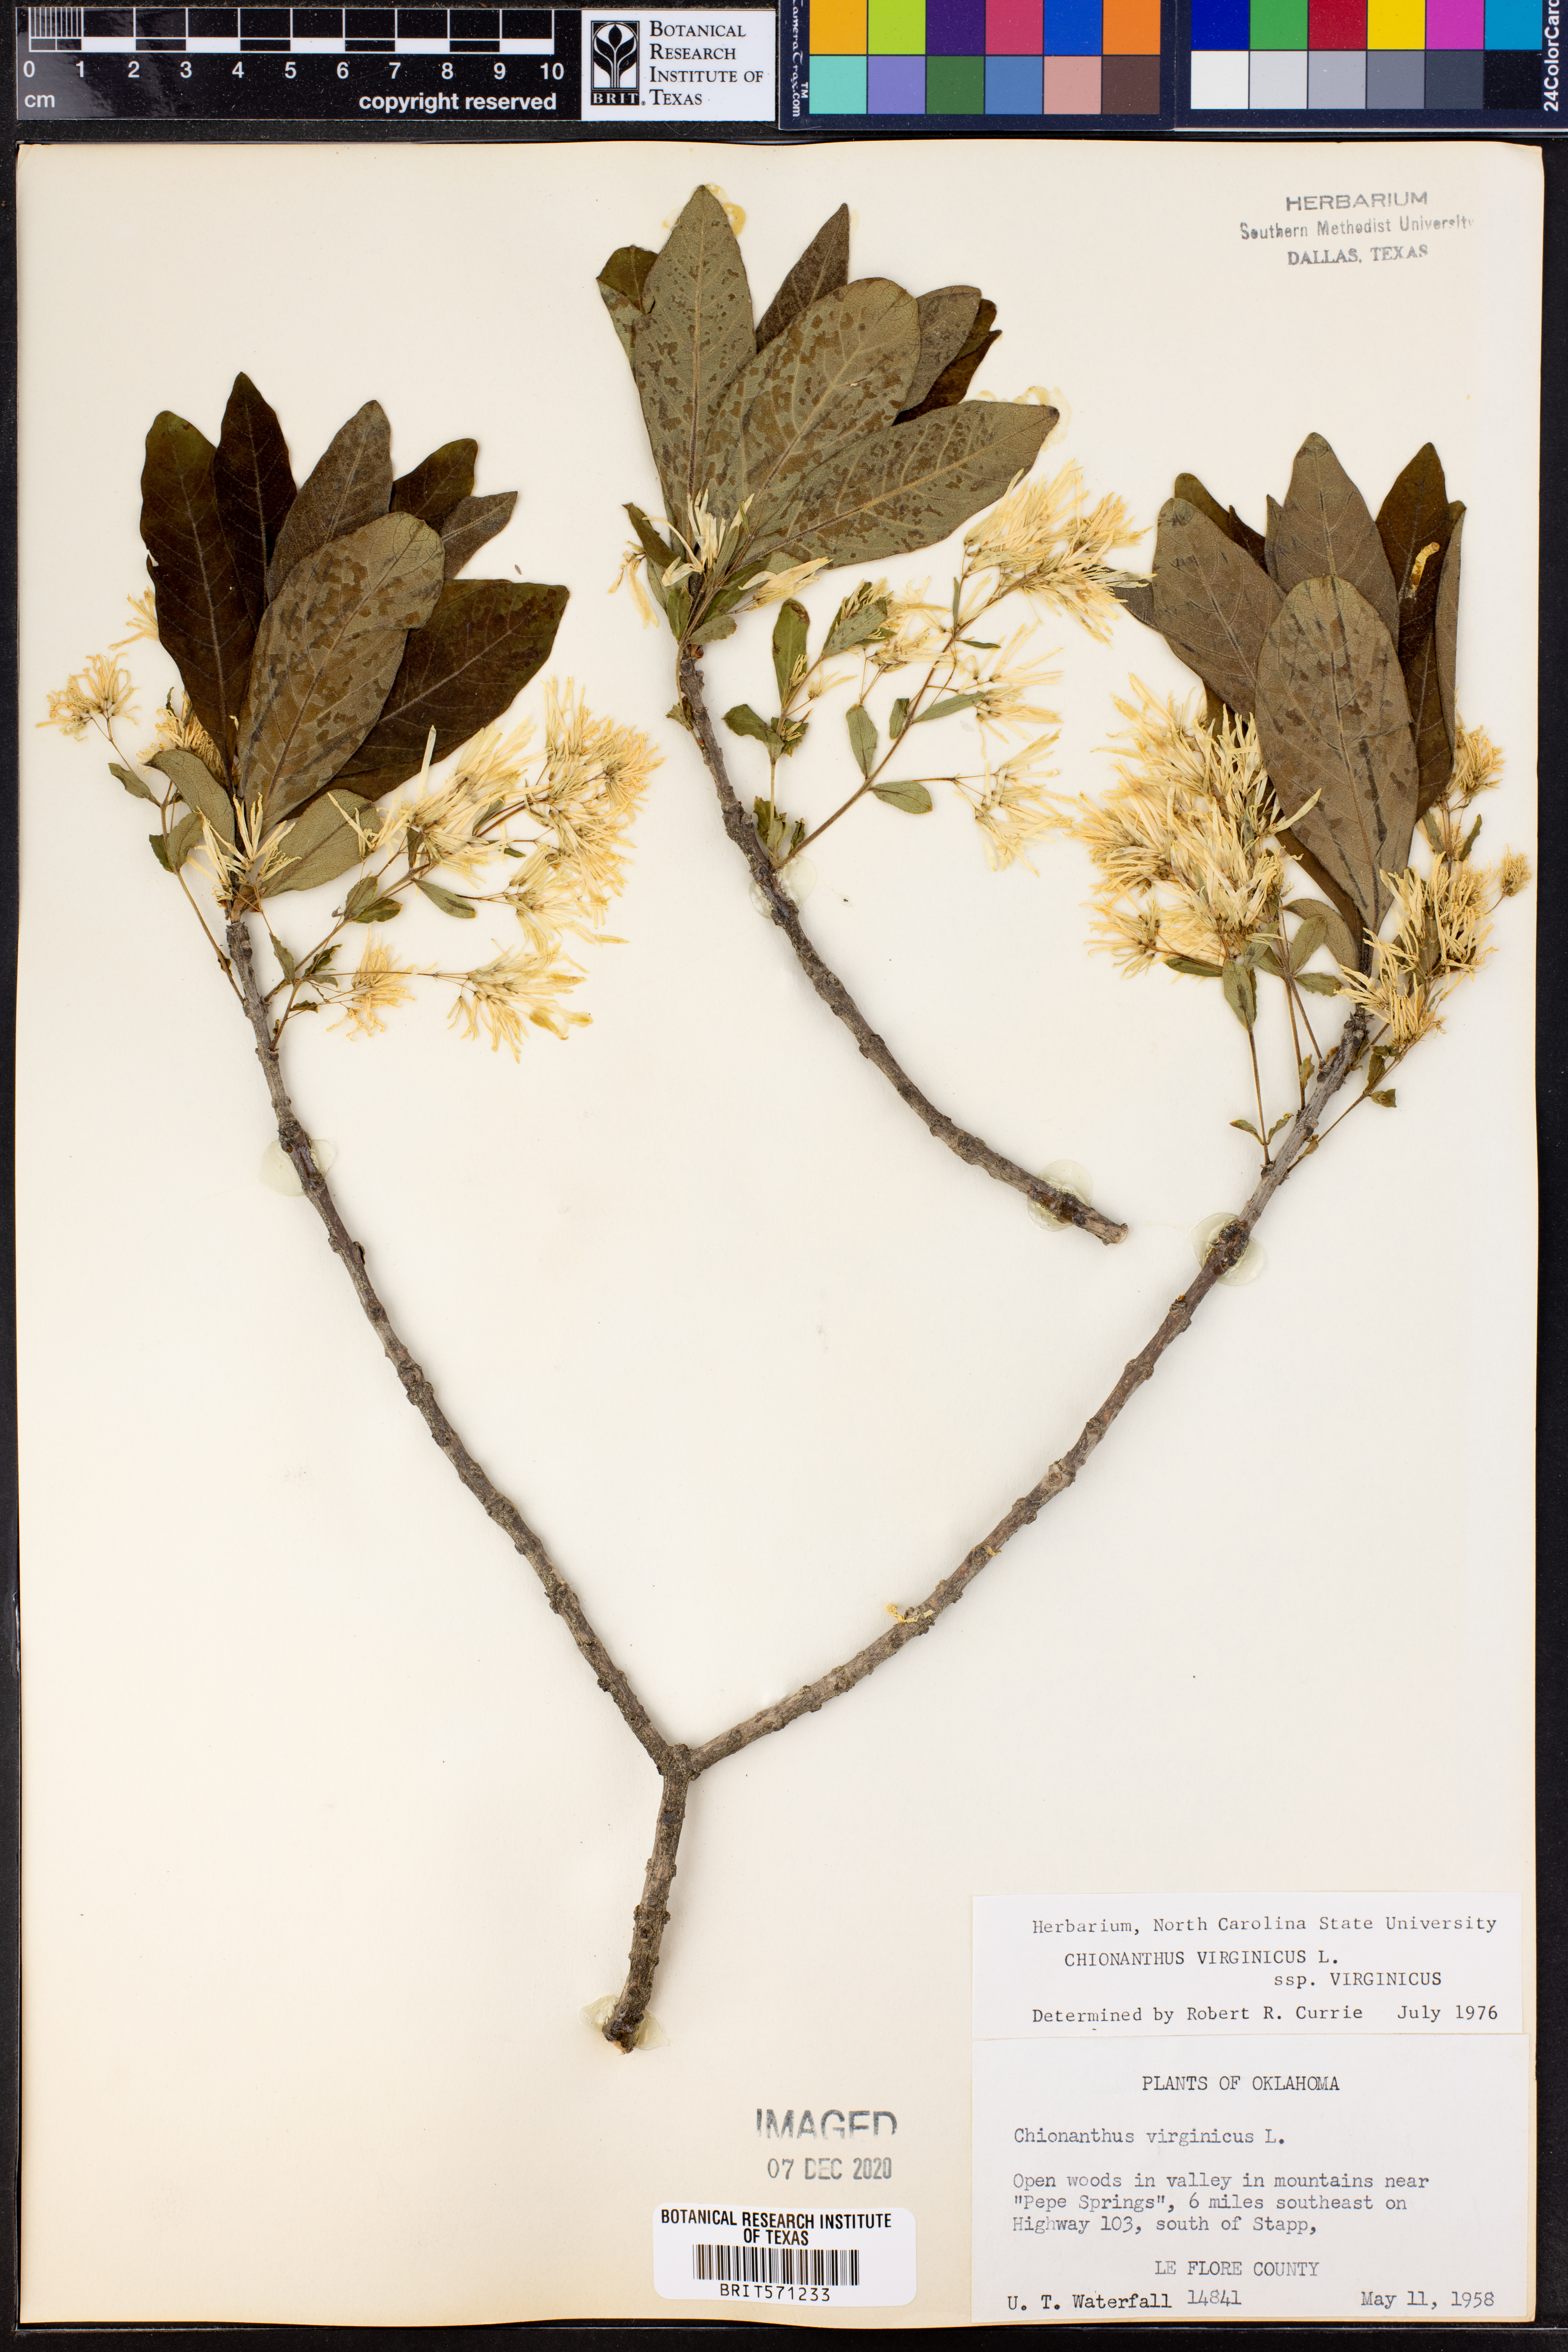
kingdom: Plantae
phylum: Tracheophyta
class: Magnoliopsida
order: Lamiales
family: Oleaceae
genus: Chionanthus
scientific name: Chionanthus virginicus
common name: American fringetree
